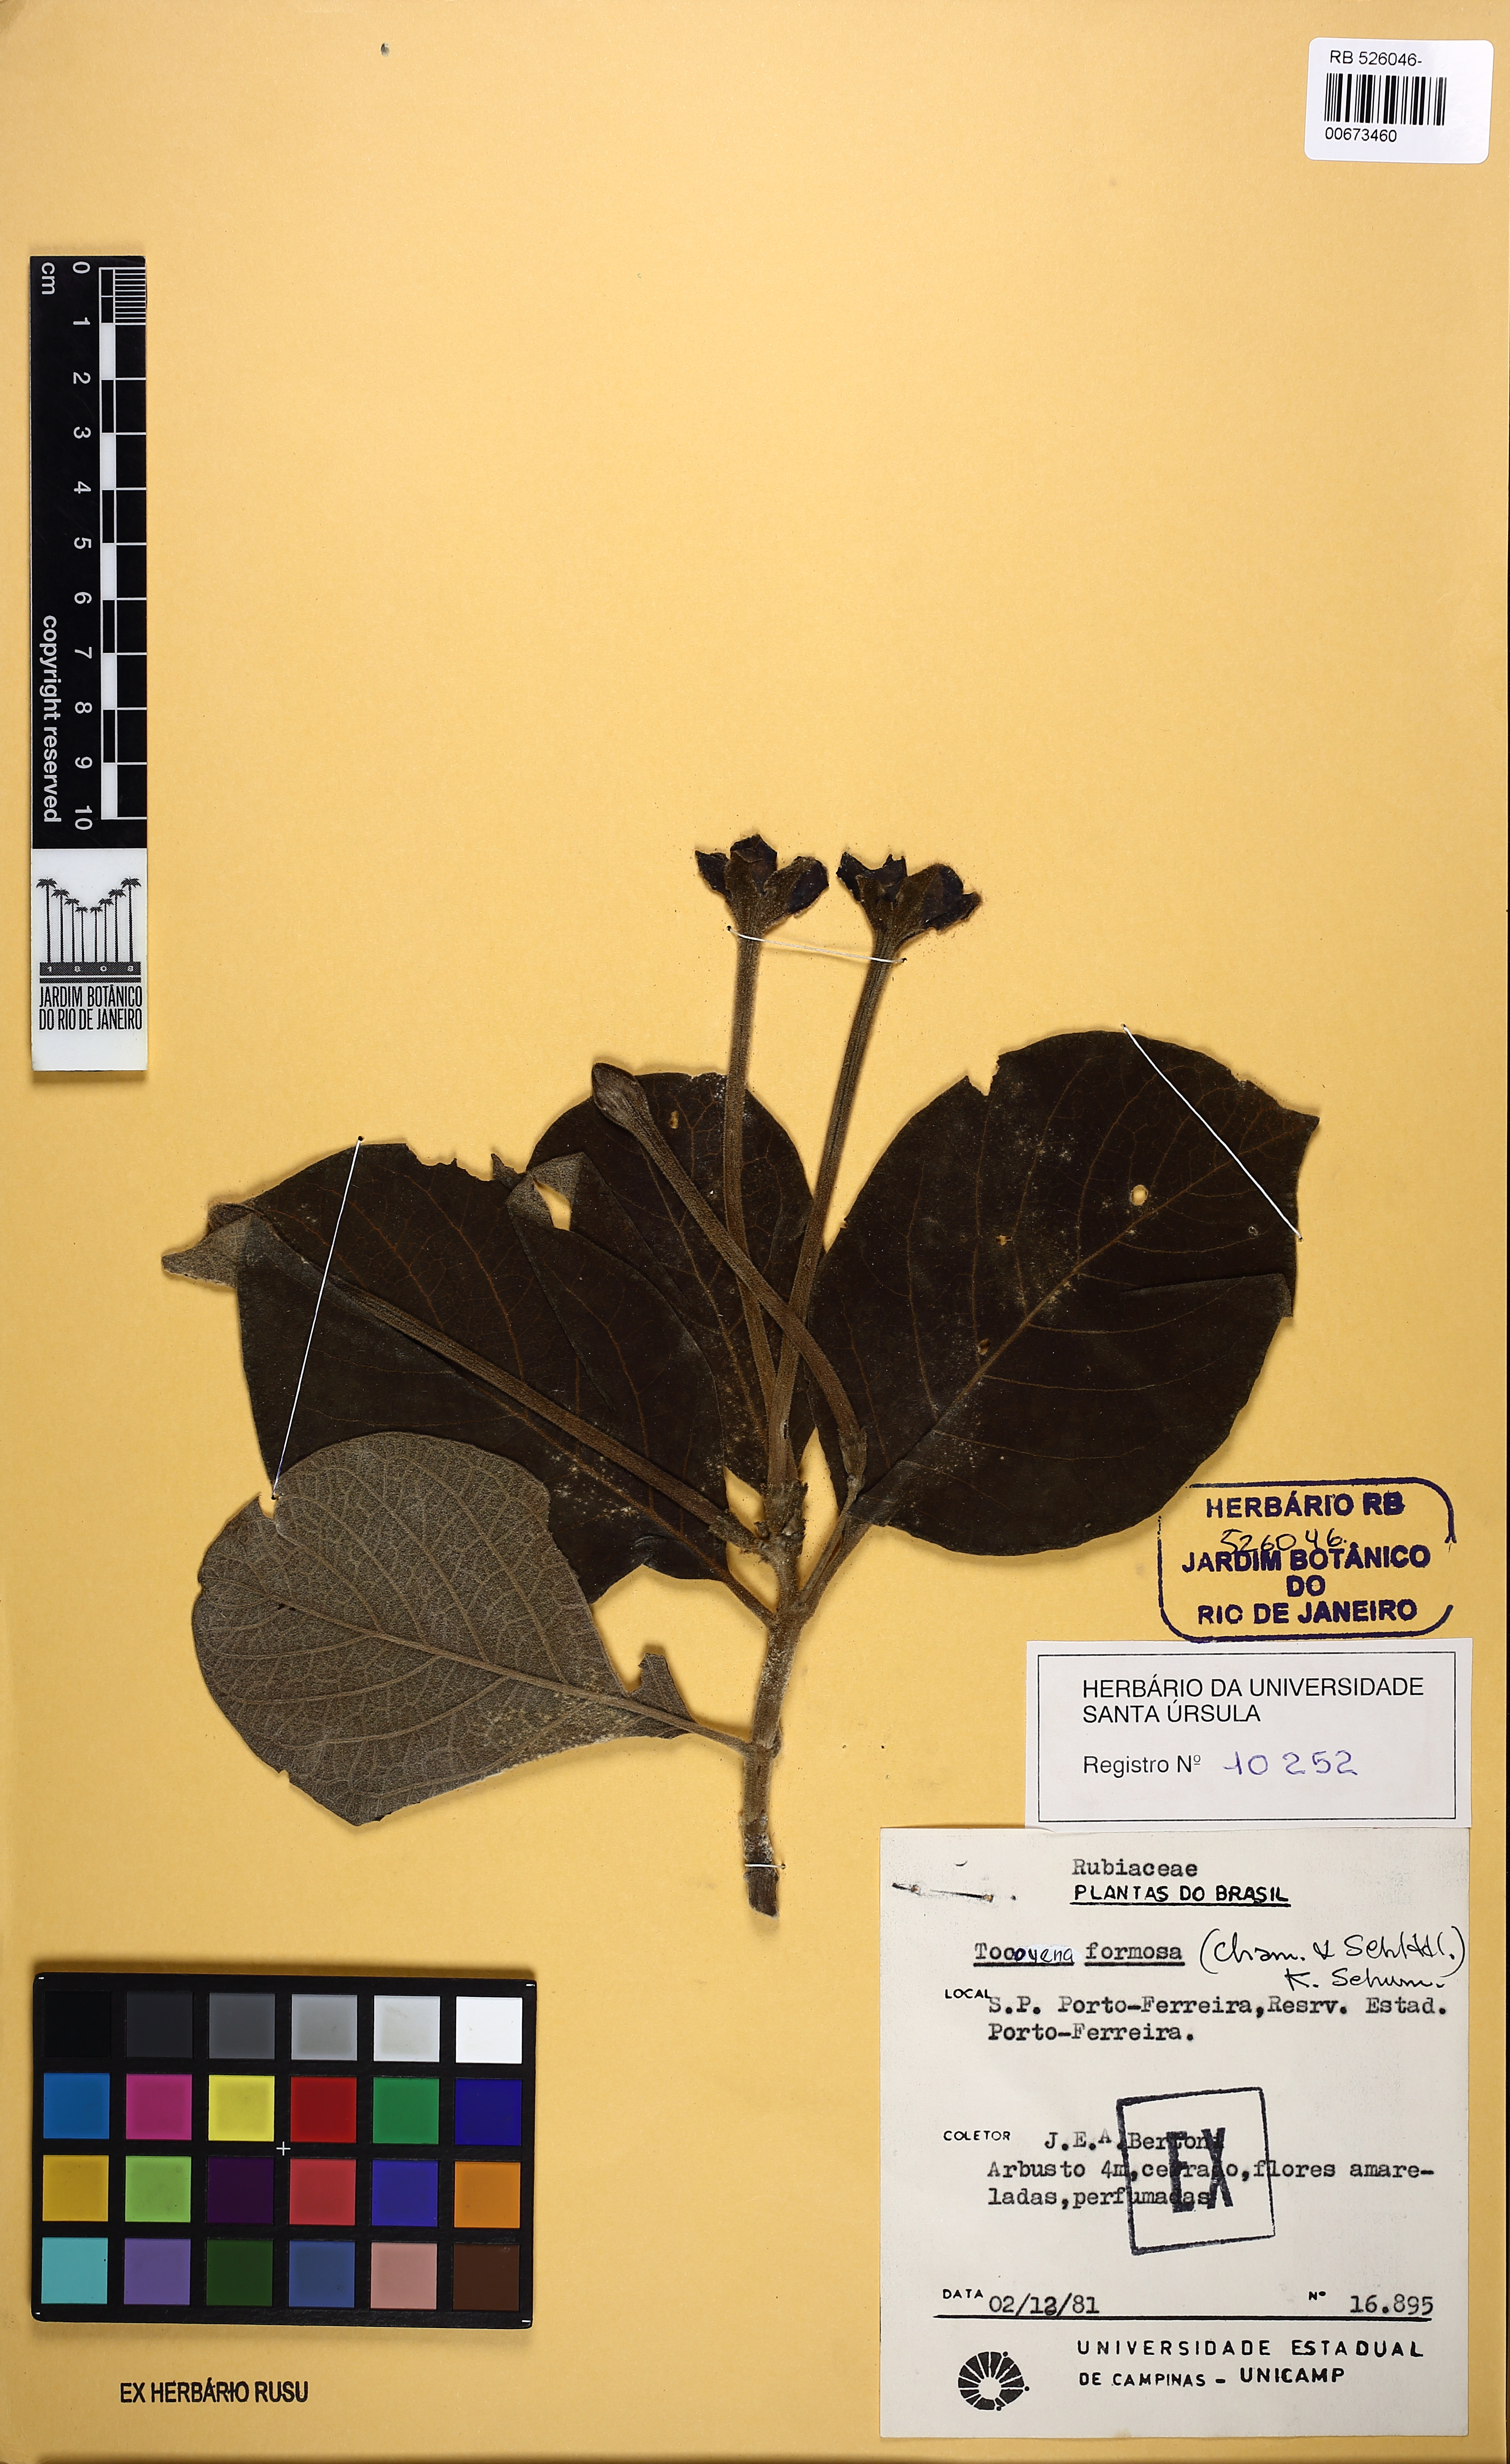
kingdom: Plantae
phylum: Tracheophyta
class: Magnoliopsida
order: Gentianales
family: Rubiaceae
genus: Tocoyena
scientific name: Tocoyena formosa
